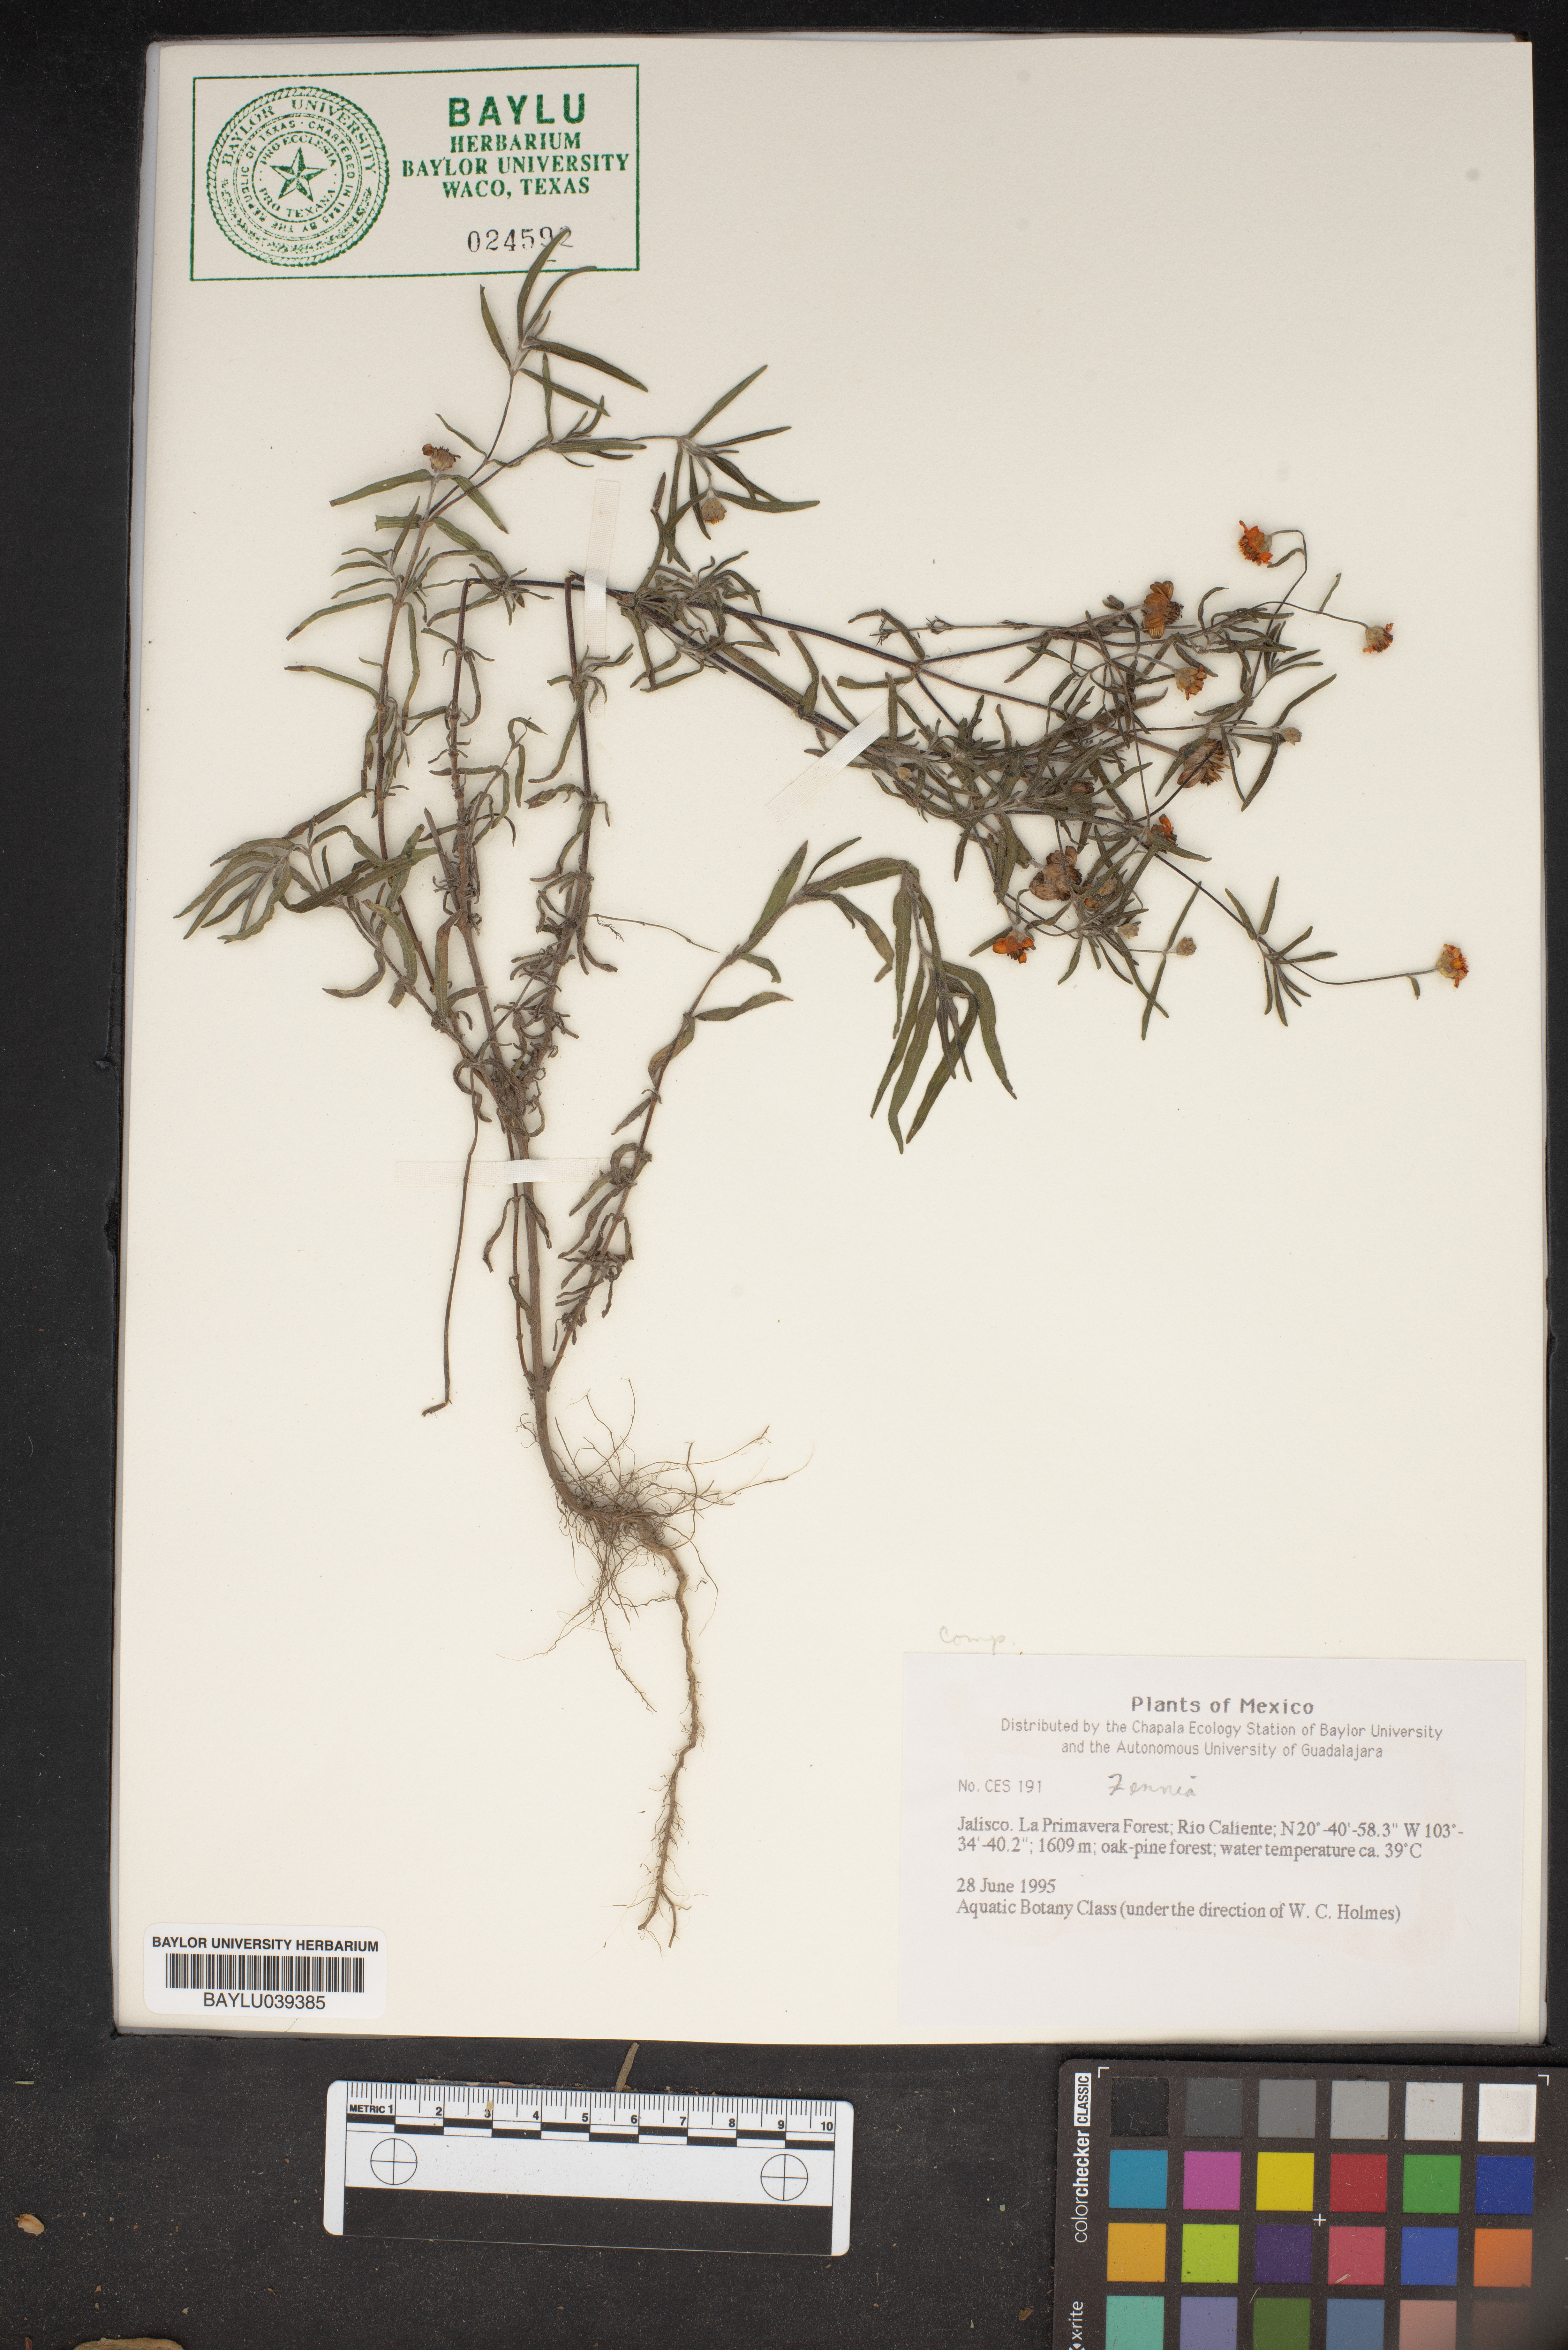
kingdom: Plantae
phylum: Tracheophyta
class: Magnoliopsida
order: Fabales
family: Fabaceae
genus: Zenia
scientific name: Zenia
